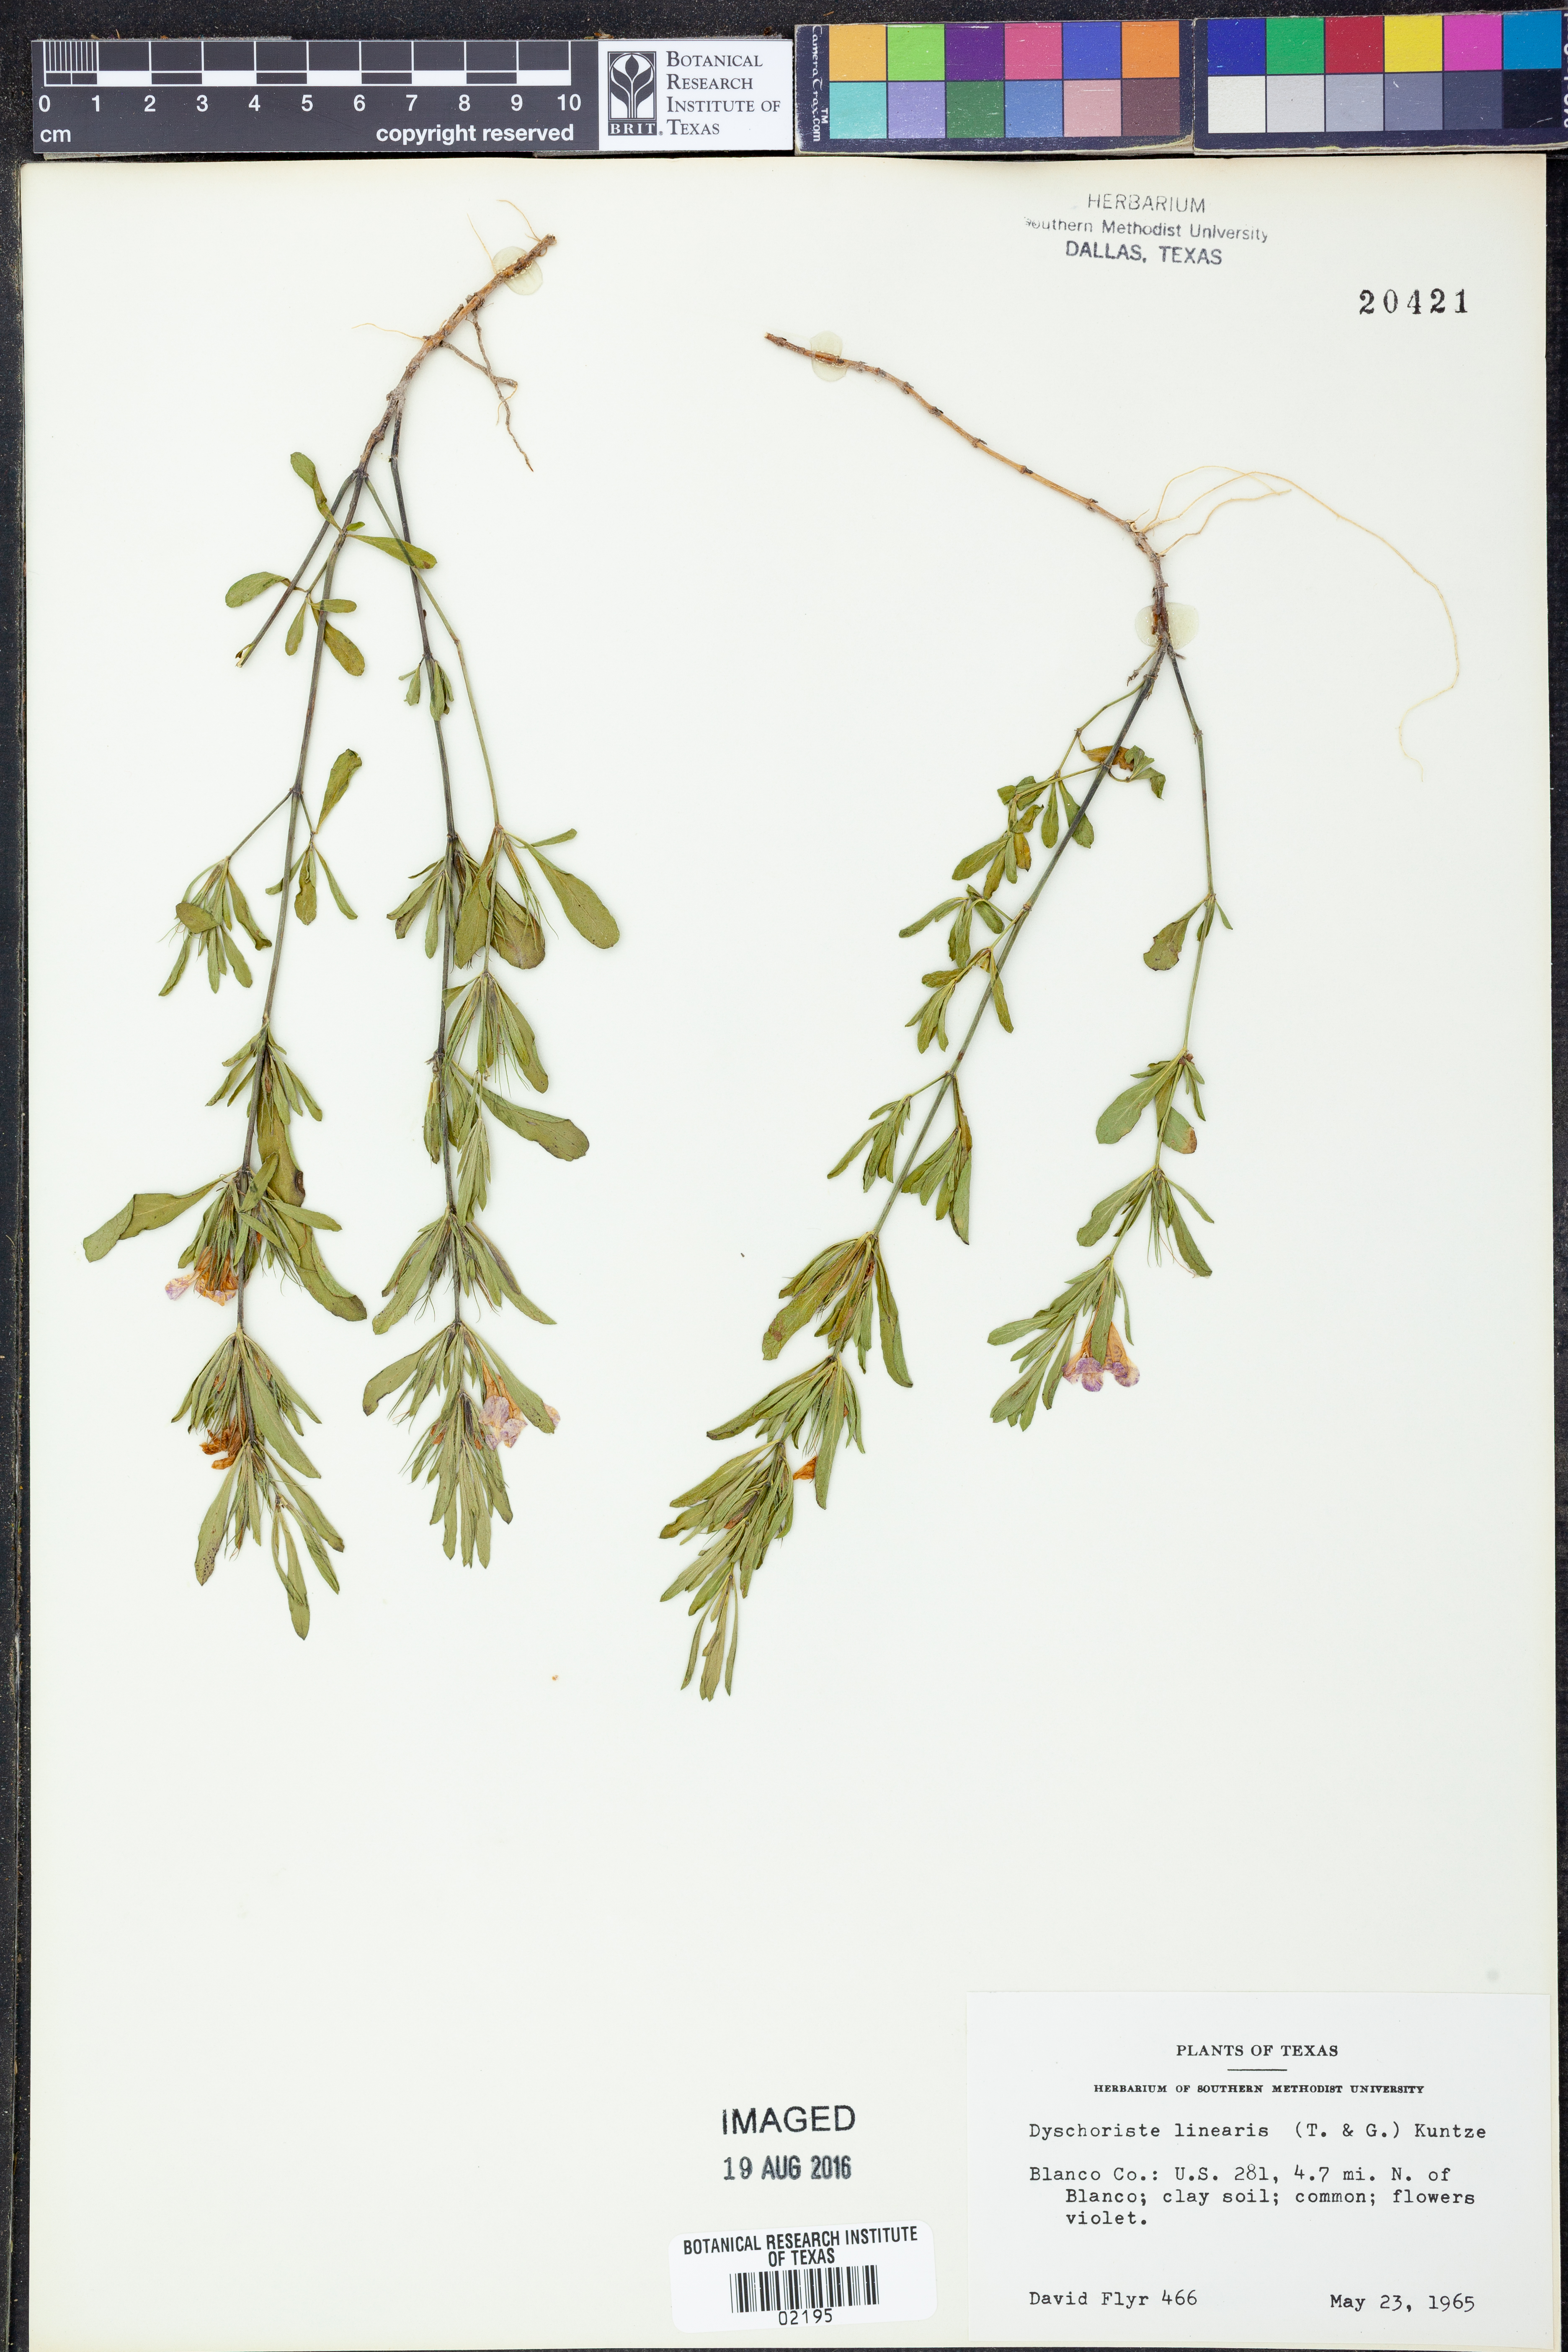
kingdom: Plantae
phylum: Tracheophyta
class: Magnoliopsida
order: Lamiales
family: Acanthaceae
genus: Dyschoriste
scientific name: Dyschoriste linearis
